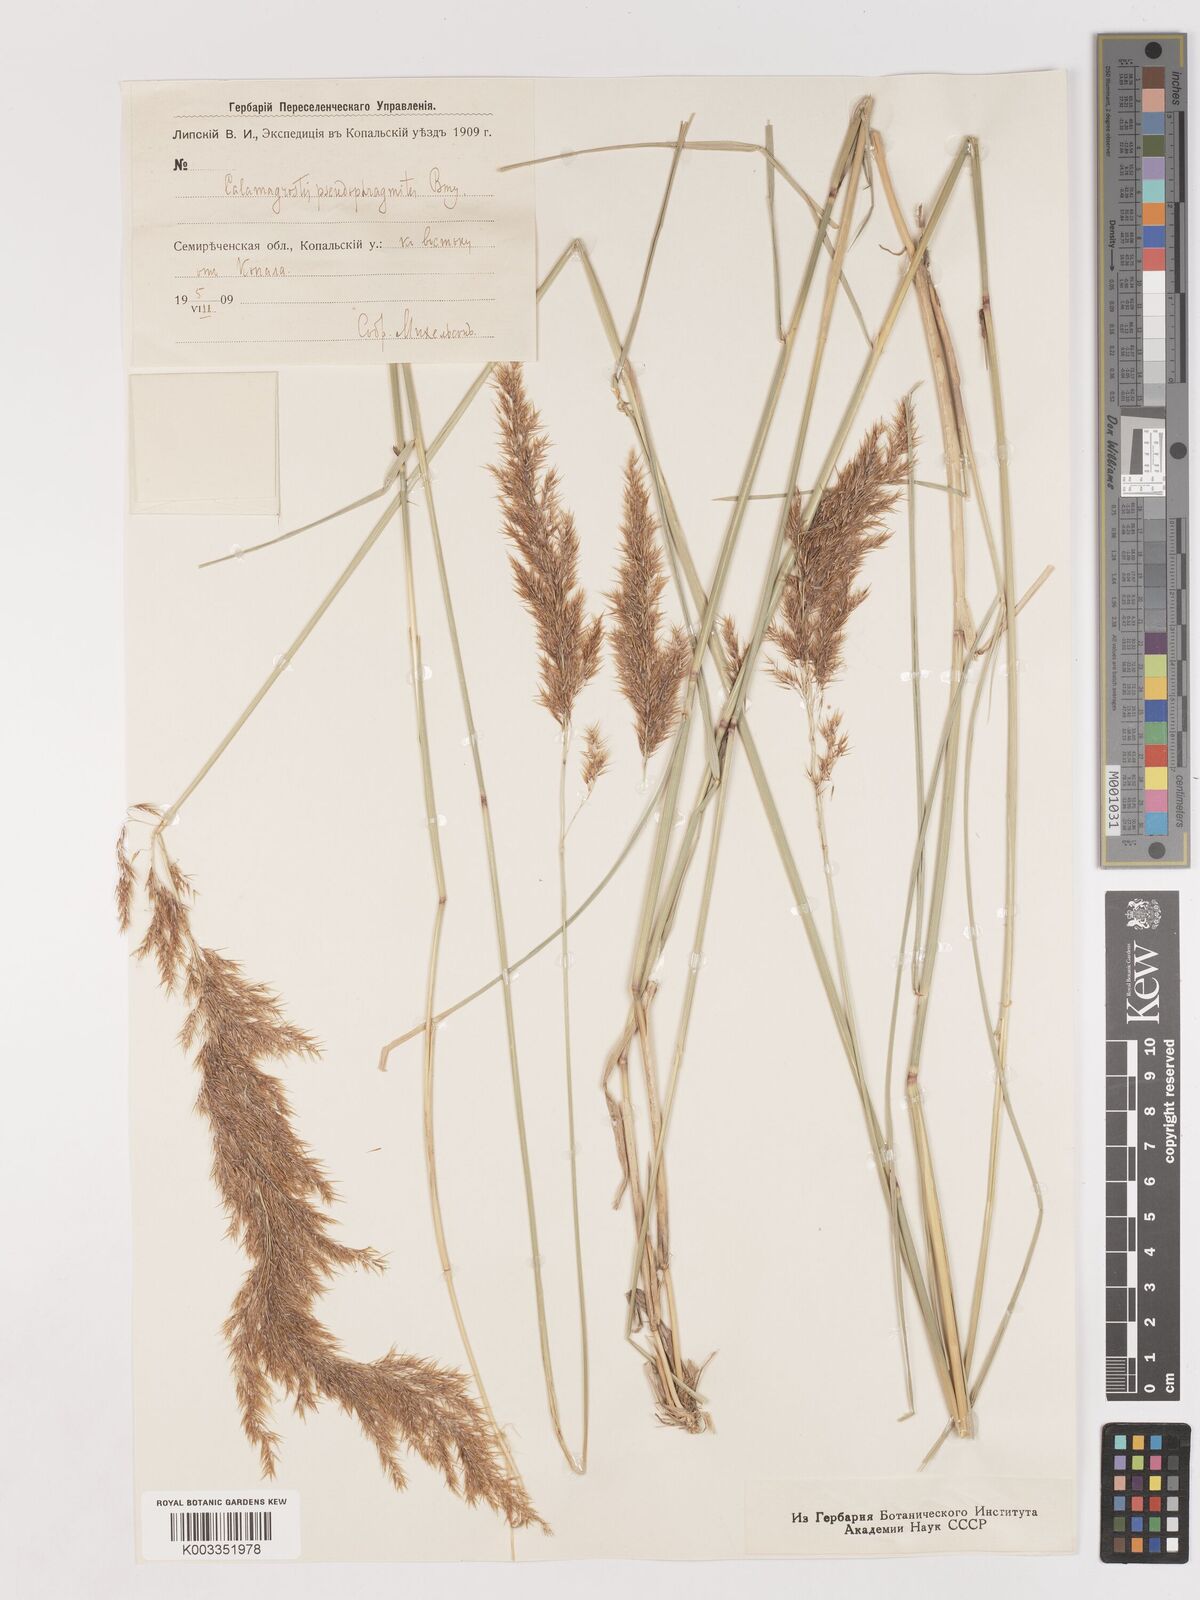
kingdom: Plantae
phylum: Tracheophyta
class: Liliopsida
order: Poales
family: Poaceae
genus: Calamagrostis
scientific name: Calamagrostis pseudophragmites
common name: Coastal small-reed
